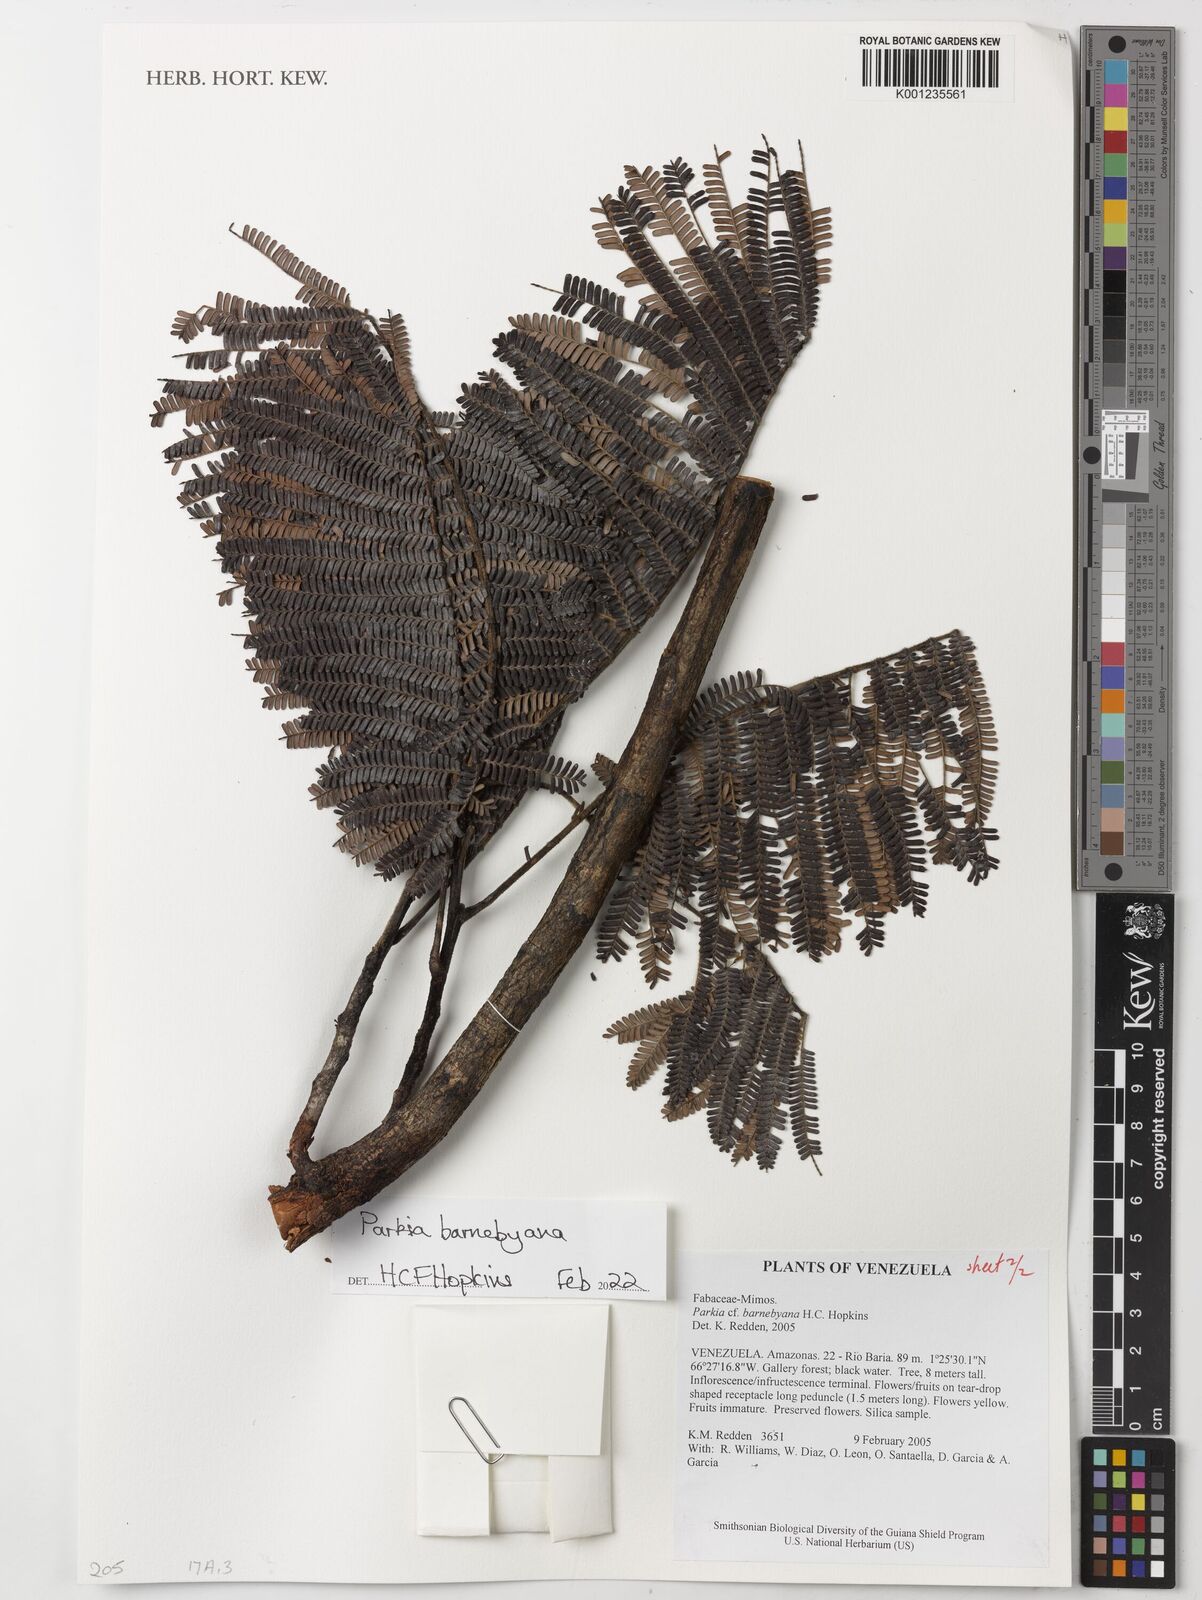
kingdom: Plantae
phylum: Tracheophyta
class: Magnoliopsida
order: Fabales
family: Fabaceae
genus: Parkia
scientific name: Parkia barnebyana
